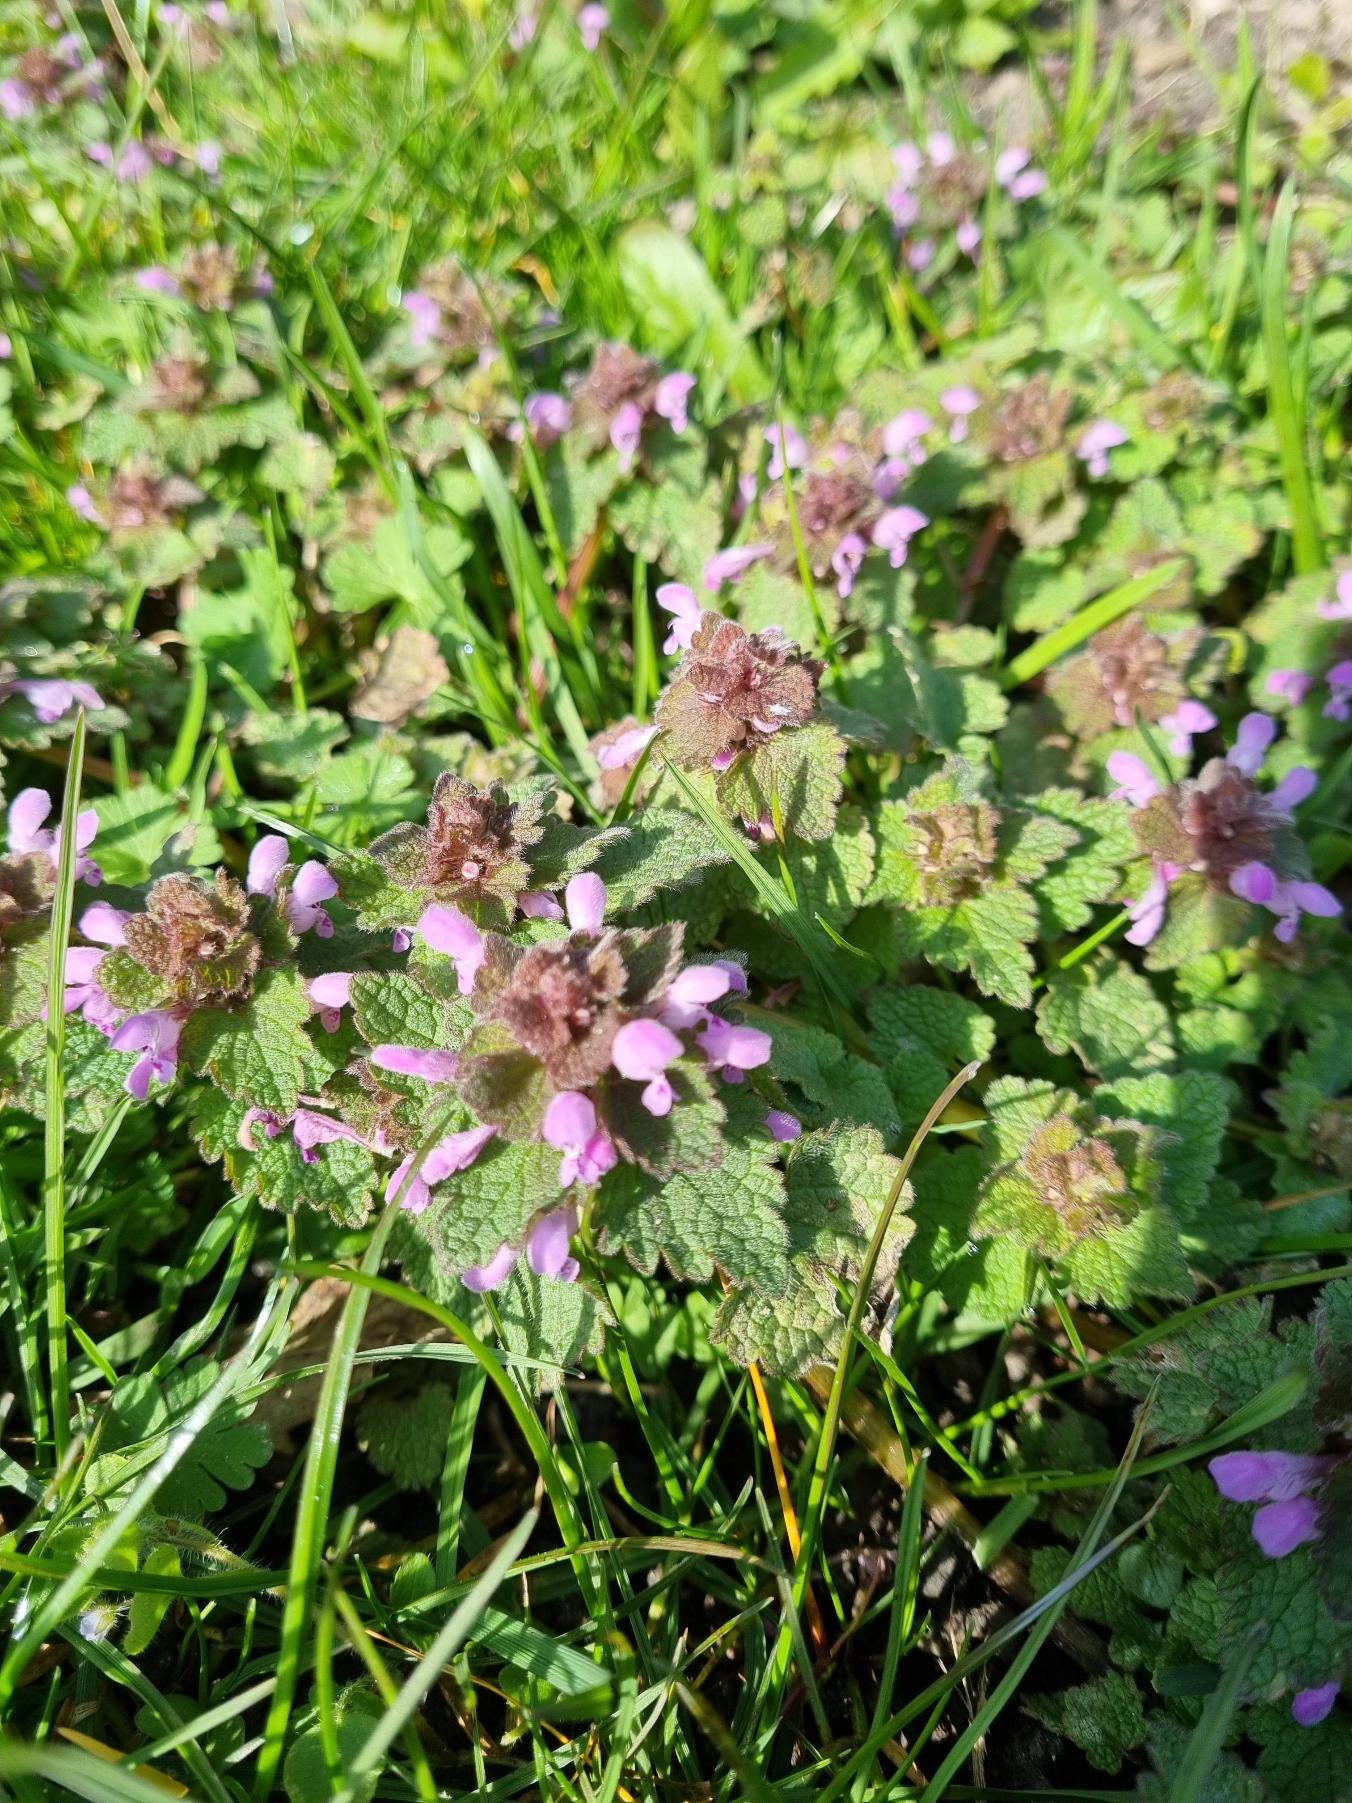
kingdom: Plantae
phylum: Tracheophyta
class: Magnoliopsida
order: Lamiales
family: Lamiaceae
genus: Lamium
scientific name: Lamium purpureum
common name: Rød tvetand
